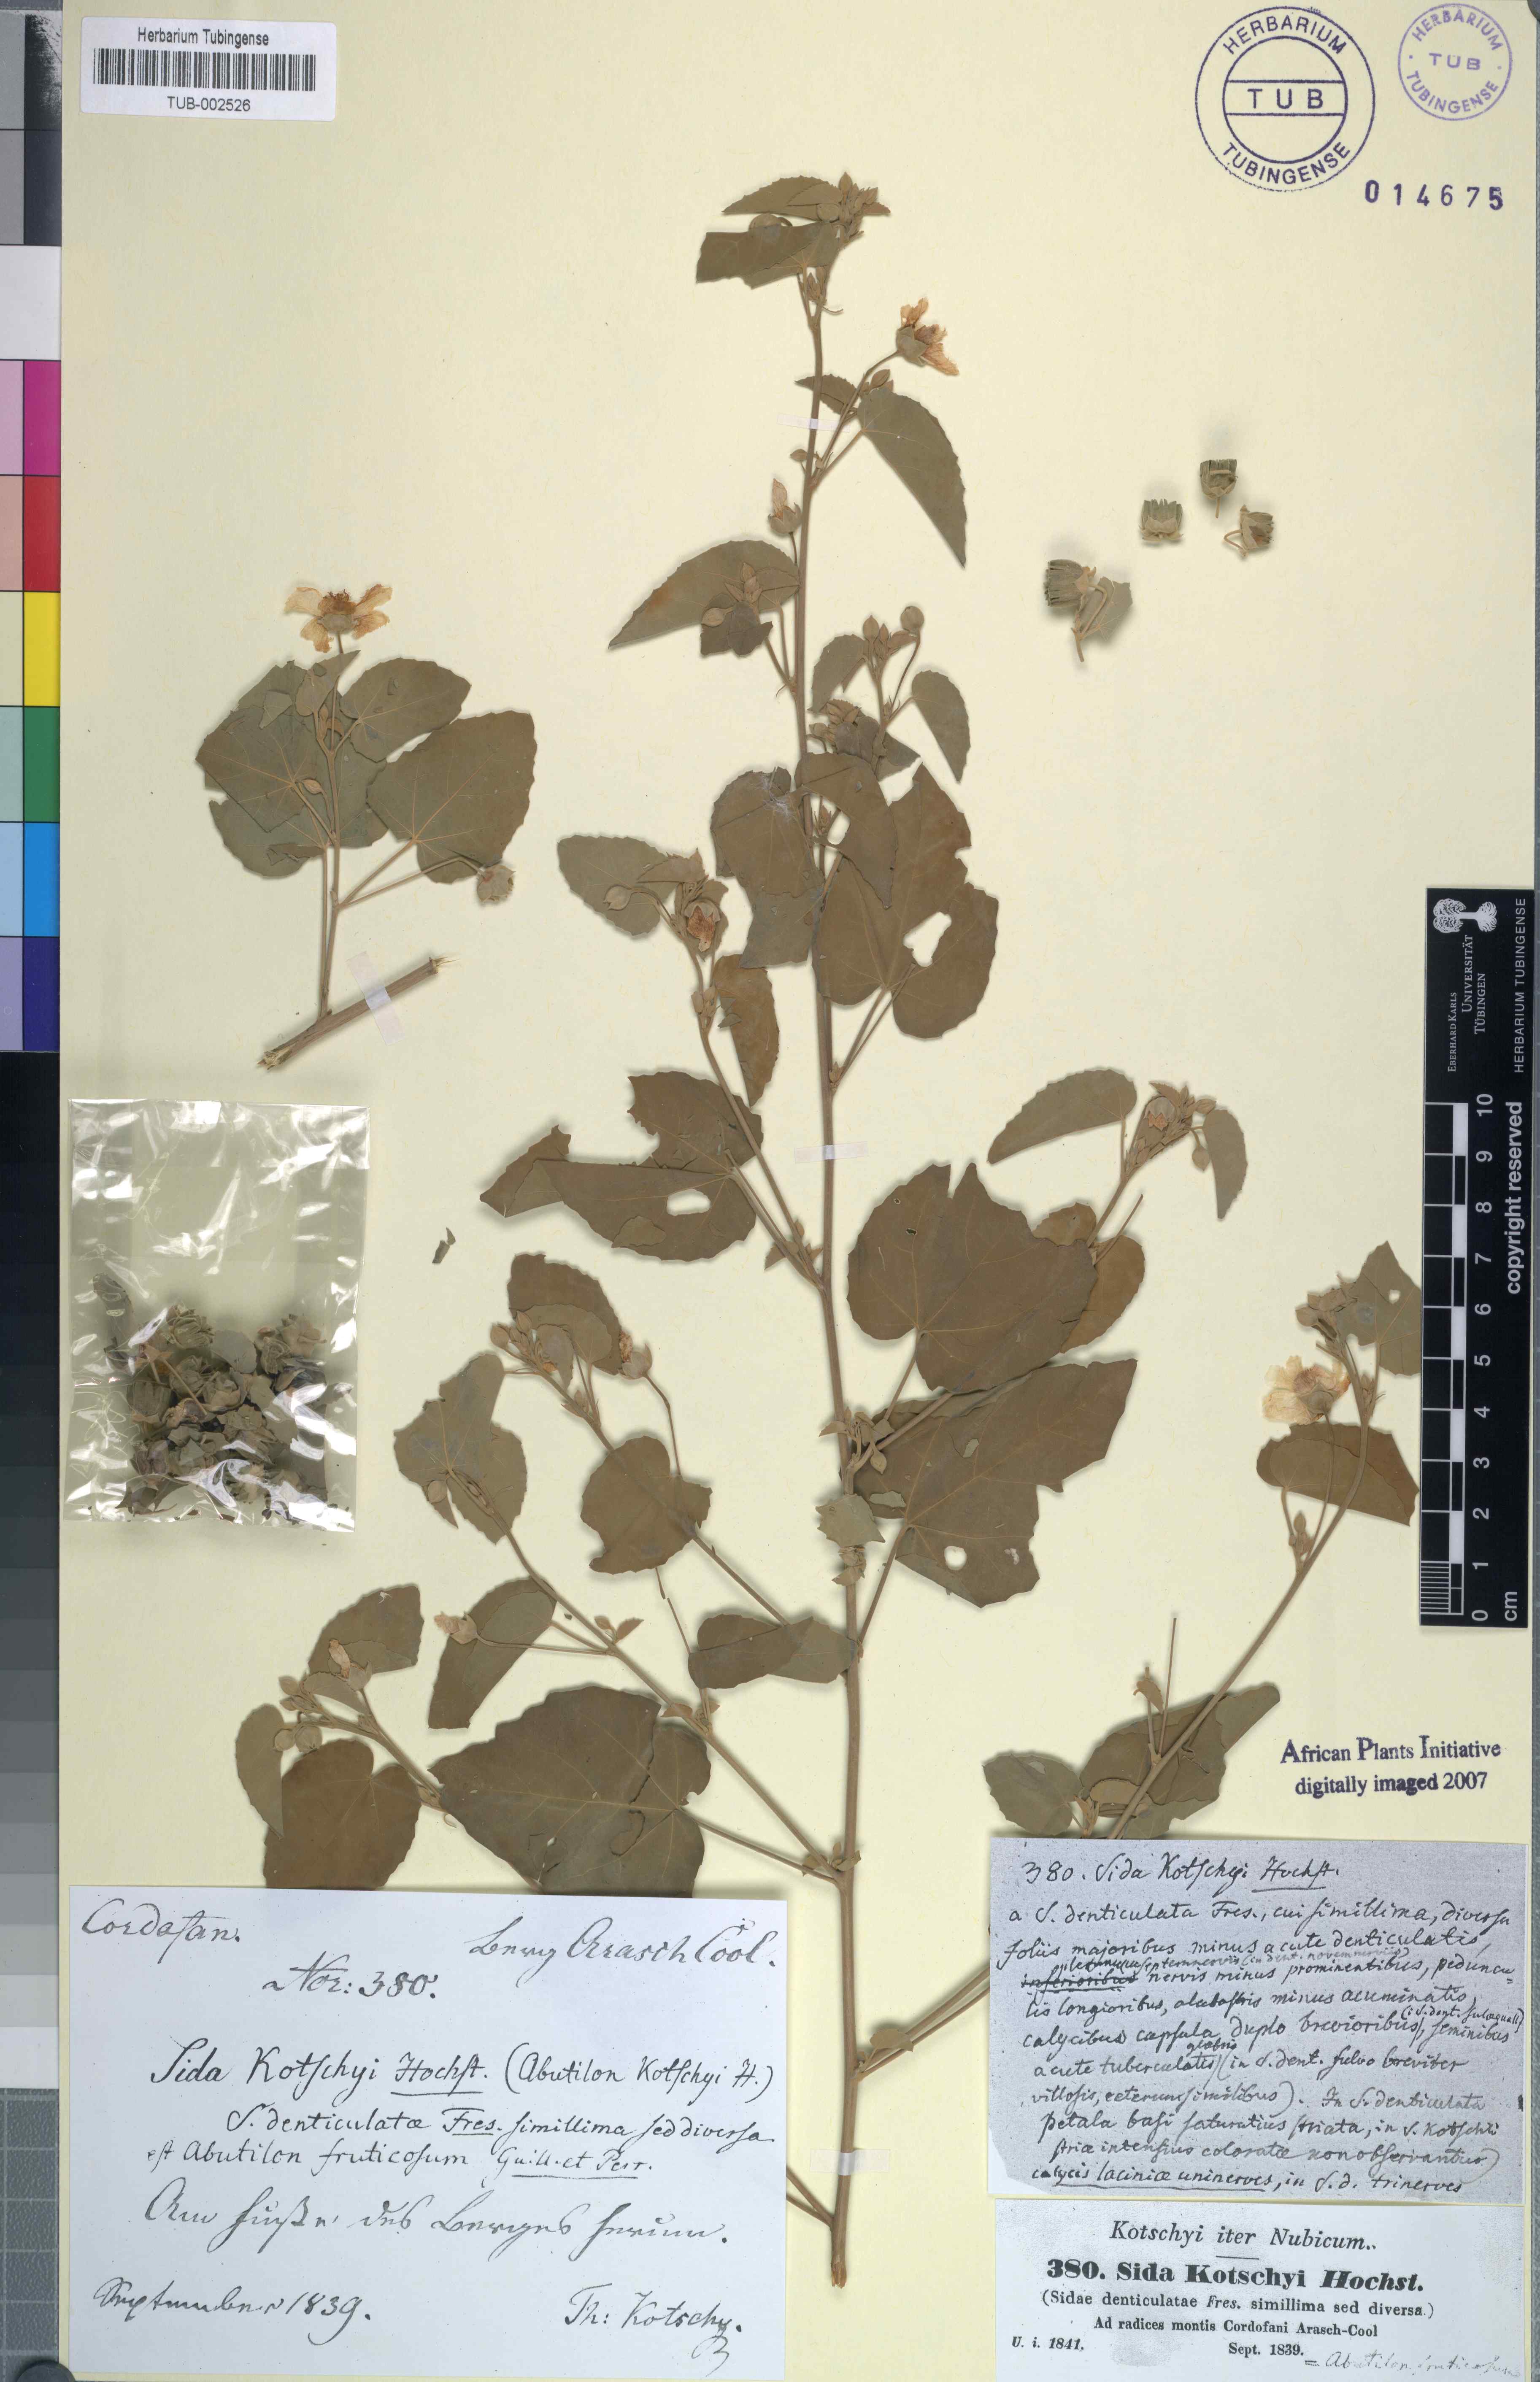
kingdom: Plantae
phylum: Tracheophyta
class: Magnoliopsida
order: Malvales
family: Malvaceae
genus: Abutilon
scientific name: Abutilon fruticosum
